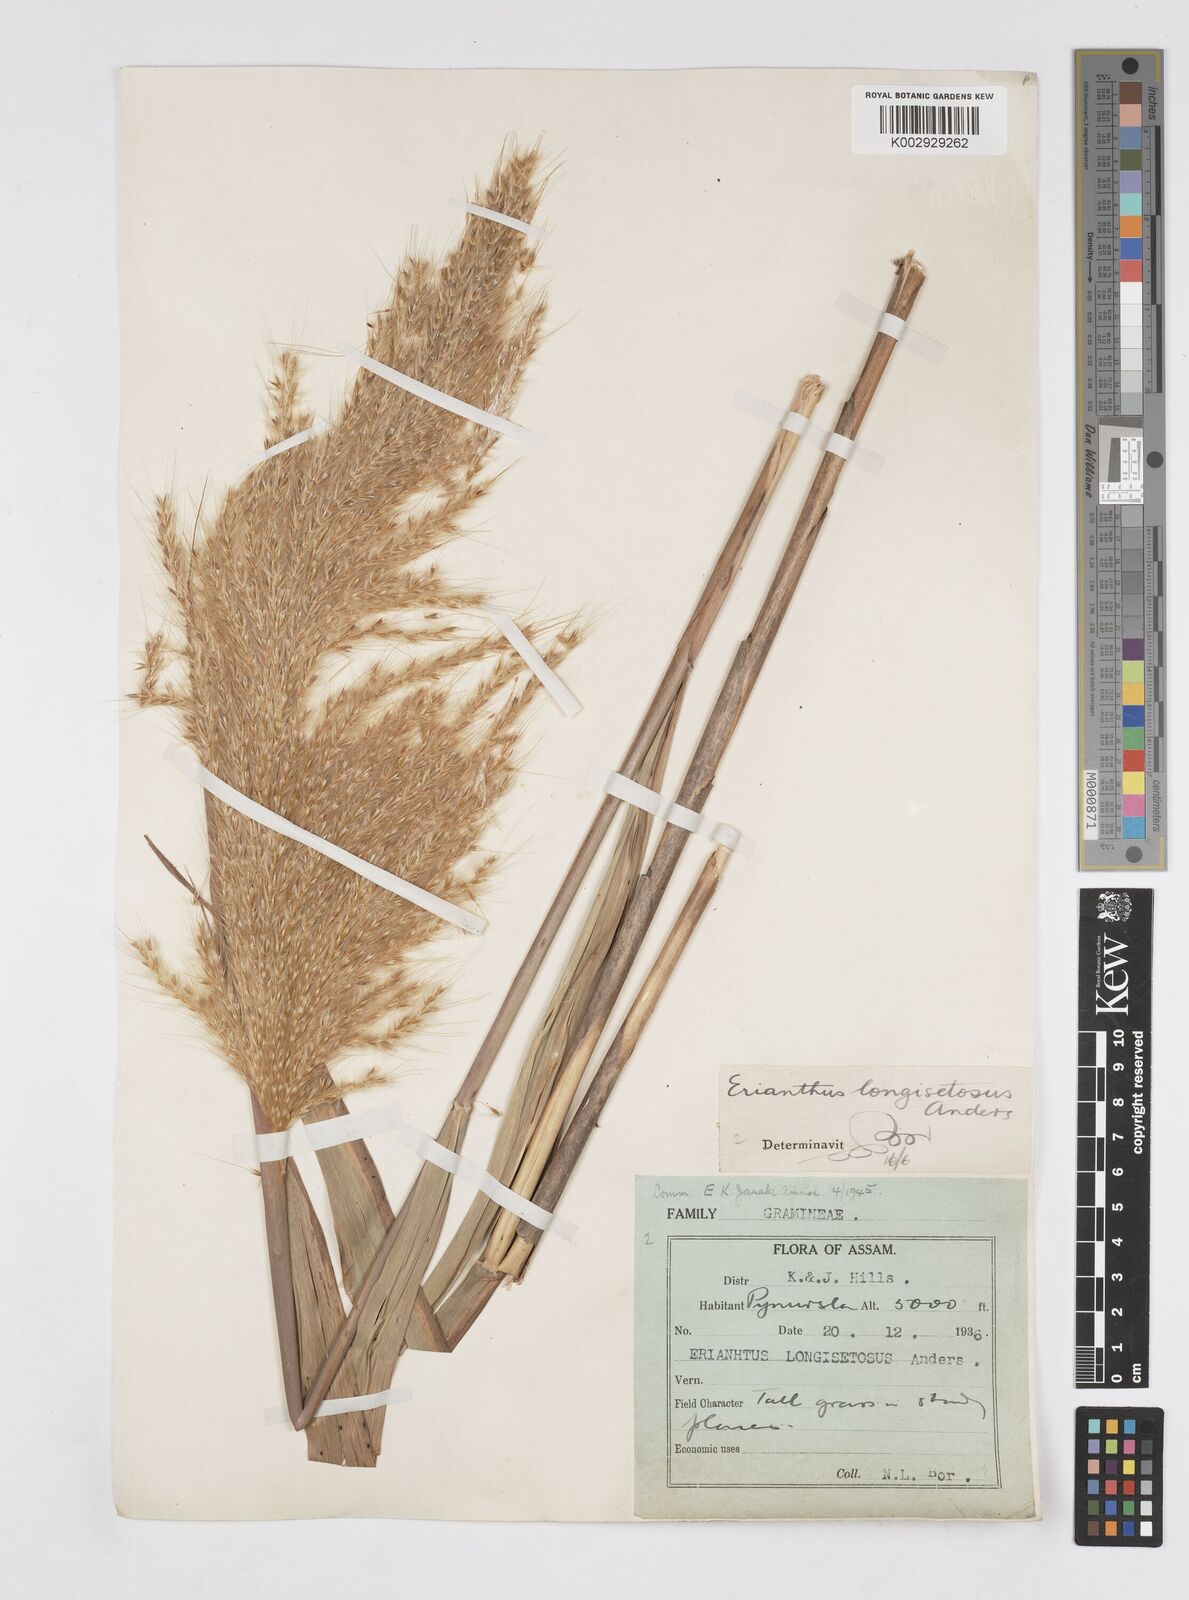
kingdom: Plantae
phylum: Tracheophyta
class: Liliopsida
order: Poales
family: Poaceae
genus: Saccharum
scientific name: Saccharum longesetosum
